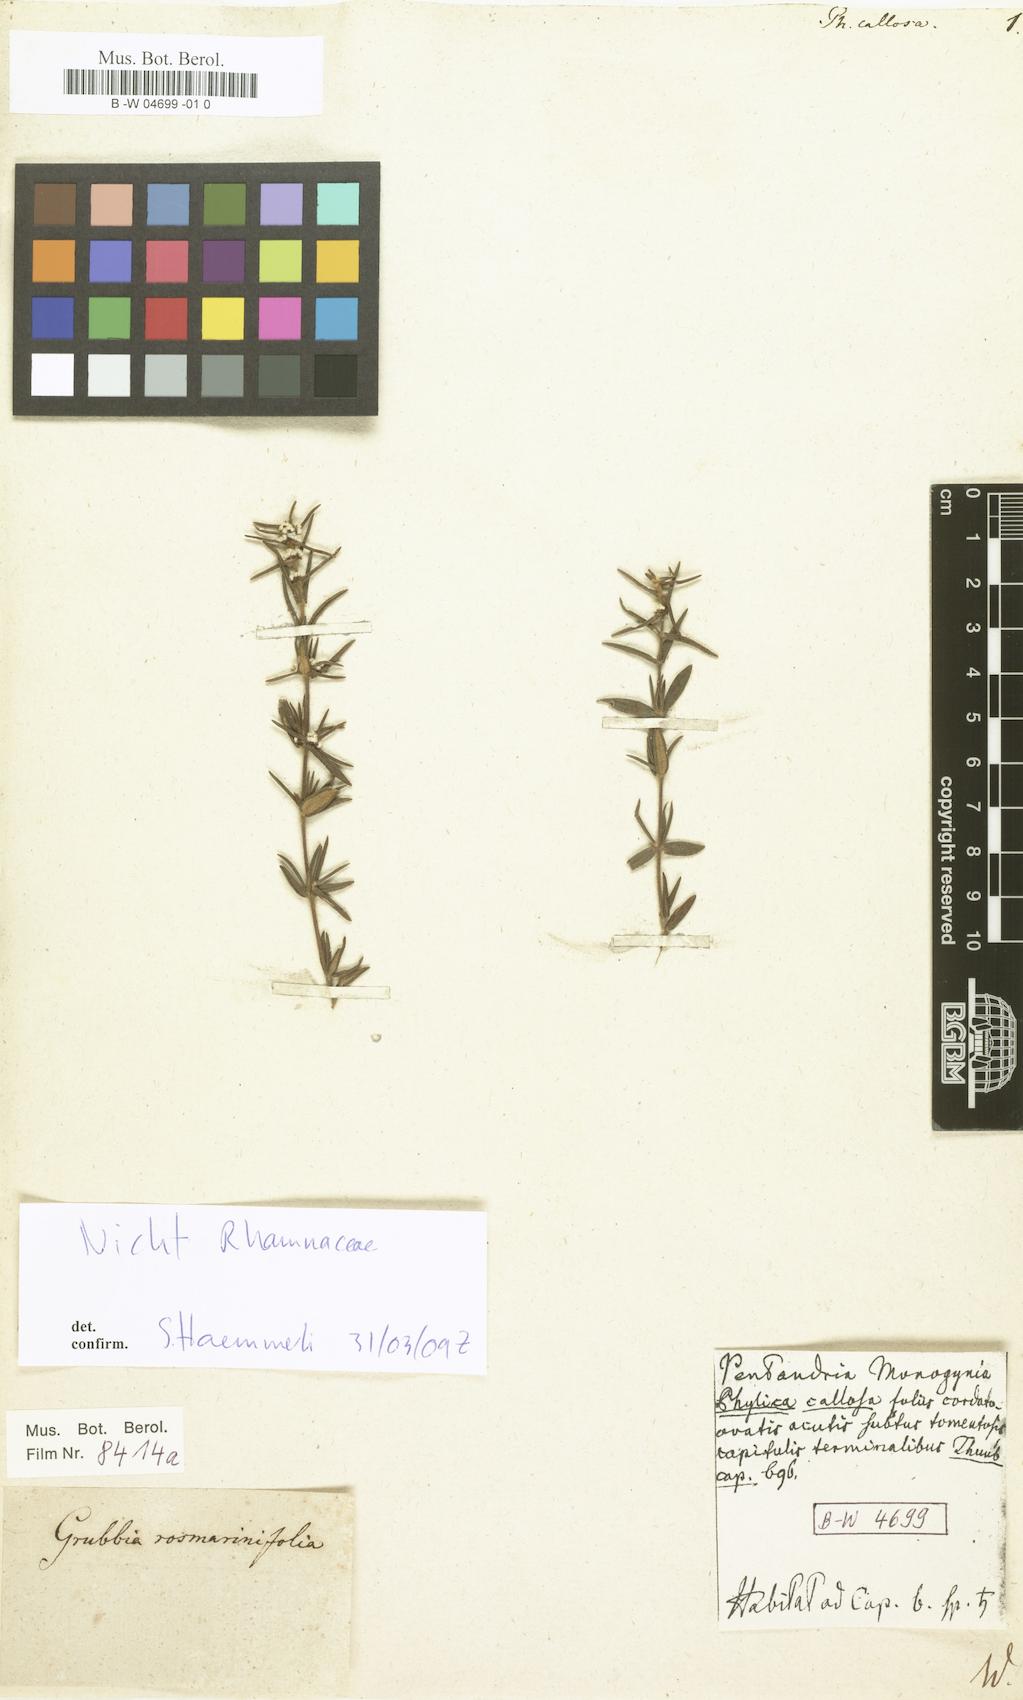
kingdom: Plantae
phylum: Tracheophyta
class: Magnoliopsida
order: Rosales
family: Rhamnaceae
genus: Phylica
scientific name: Phylica callosa
